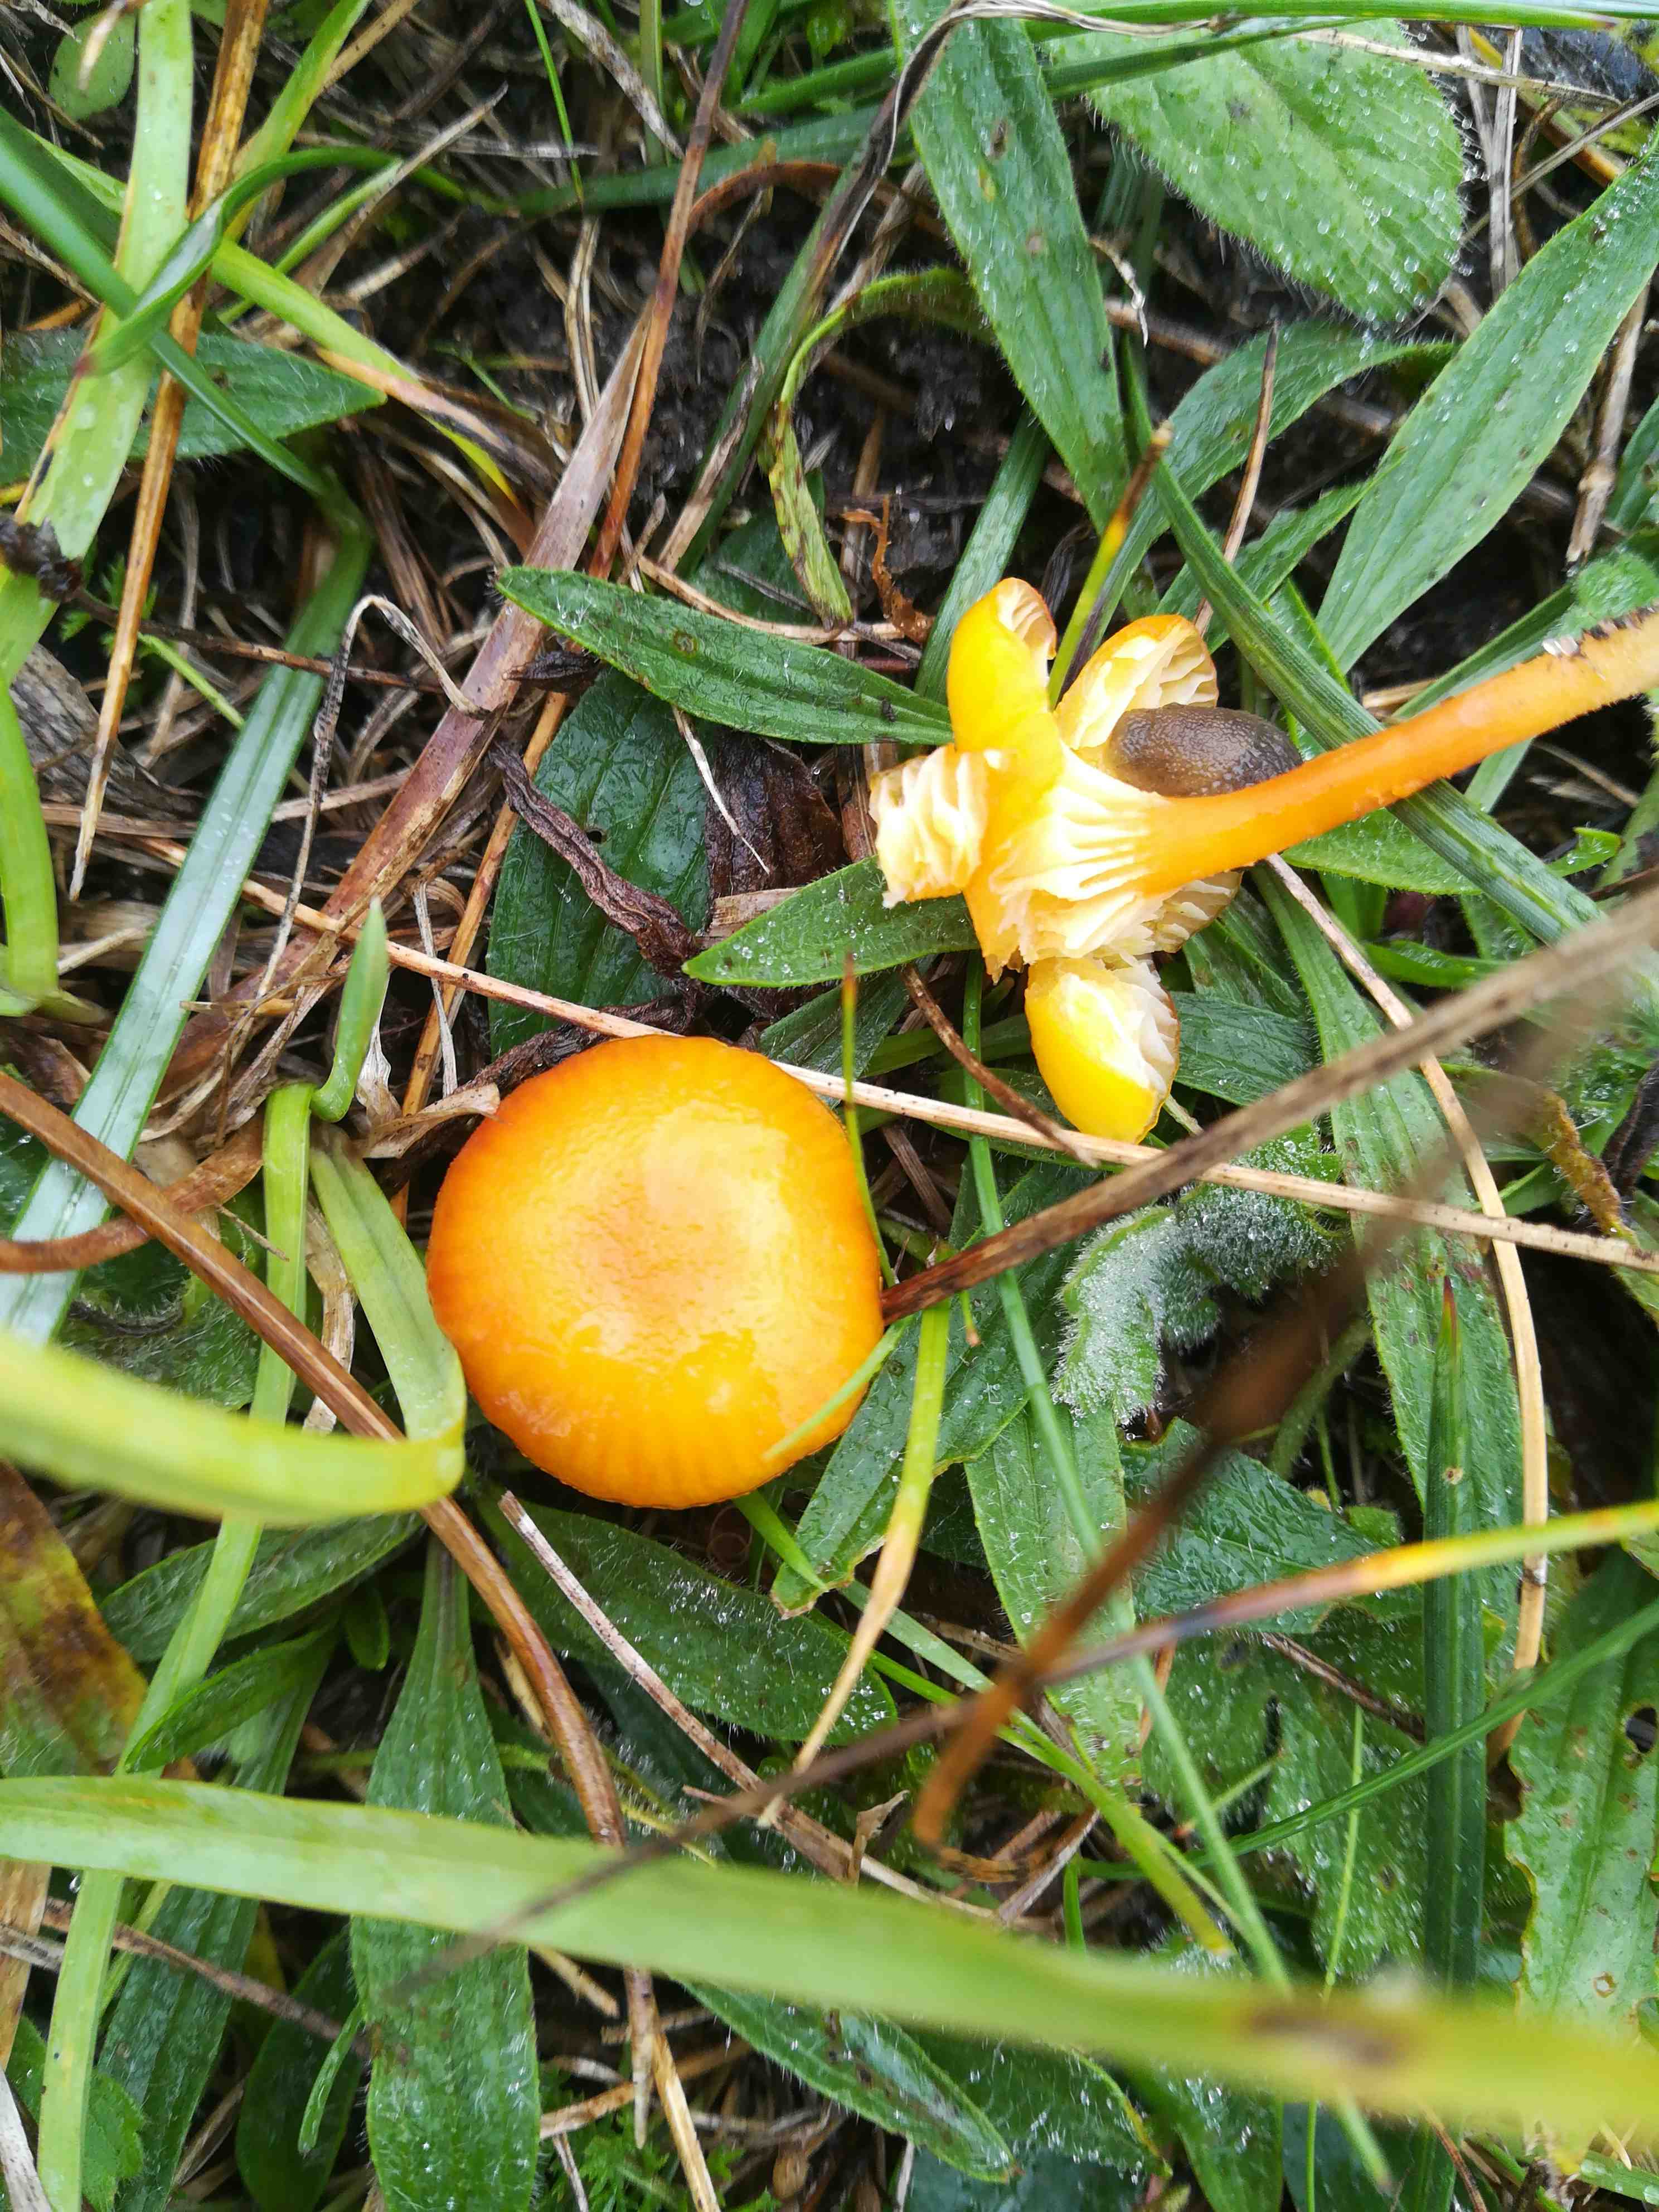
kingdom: Fungi
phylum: Basidiomycota
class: Agaricomycetes
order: Agaricales
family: Hygrophoraceae
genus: Hygrocybe
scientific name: Hygrocybe cantharellus
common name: kantarel-vokshat
